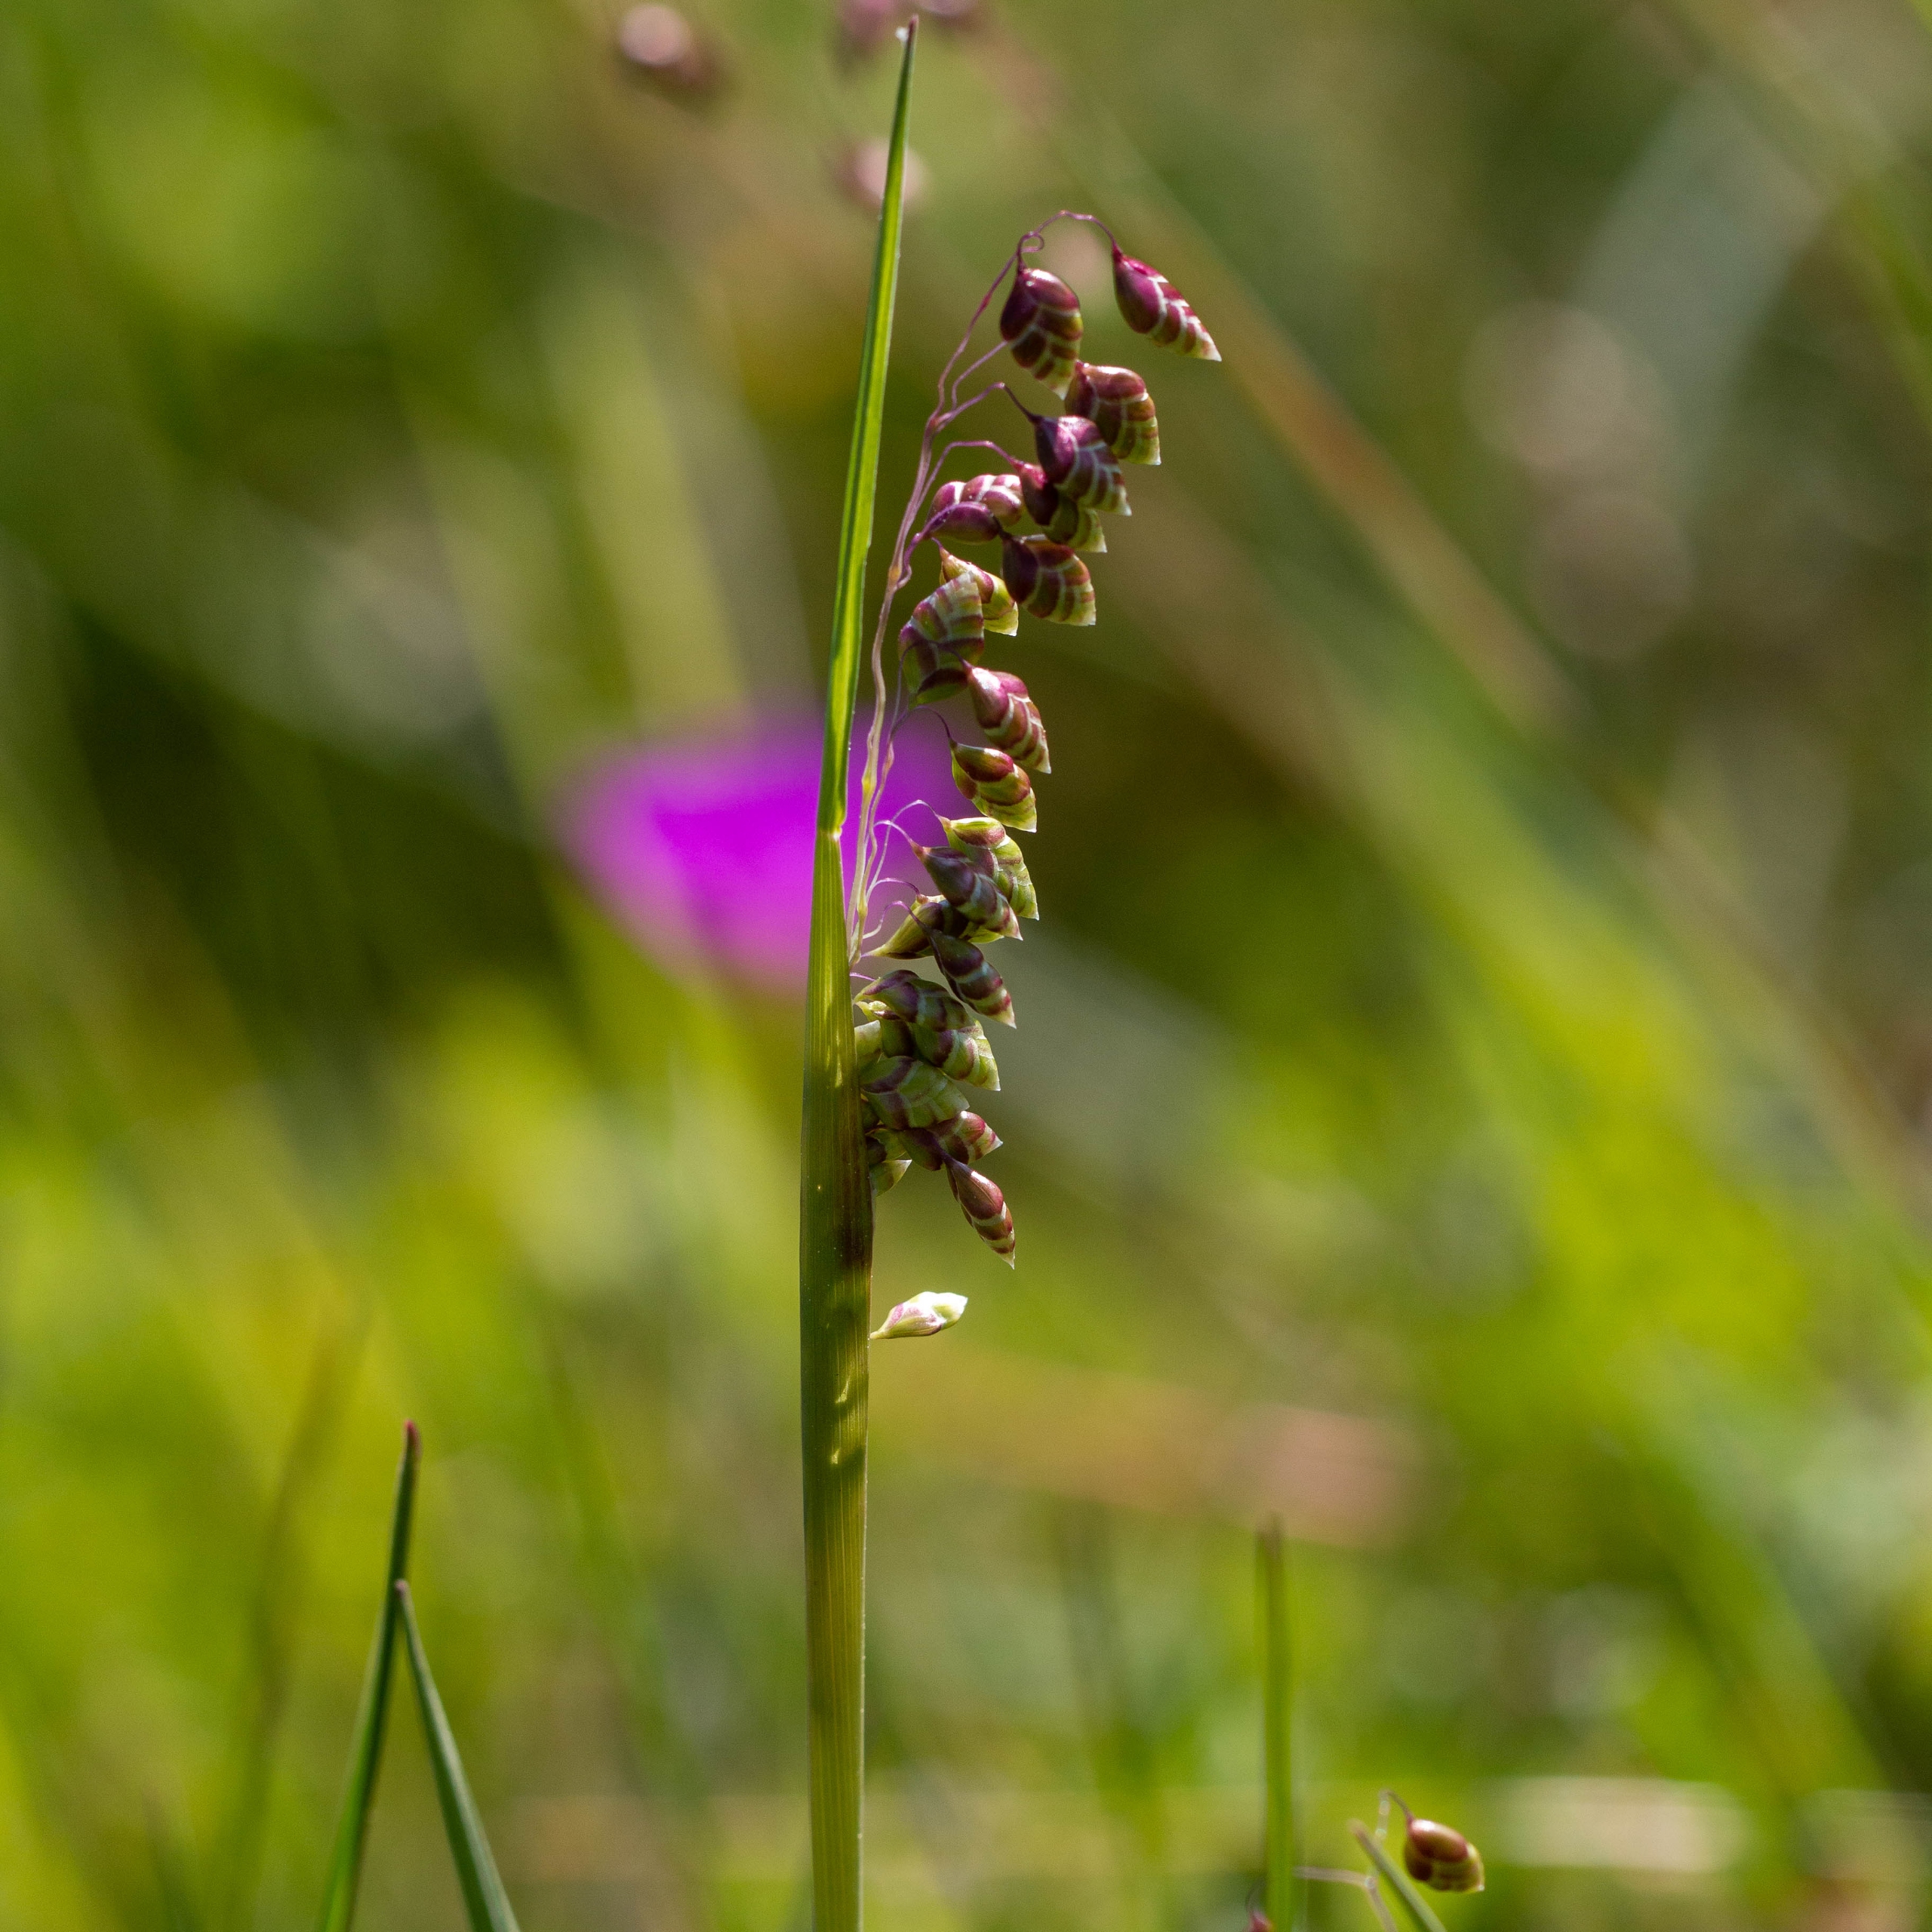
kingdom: Plantae
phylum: Tracheophyta
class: Liliopsida
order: Poales
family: Poaceae
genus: Briza
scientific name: Briza media
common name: Hjertegræs
